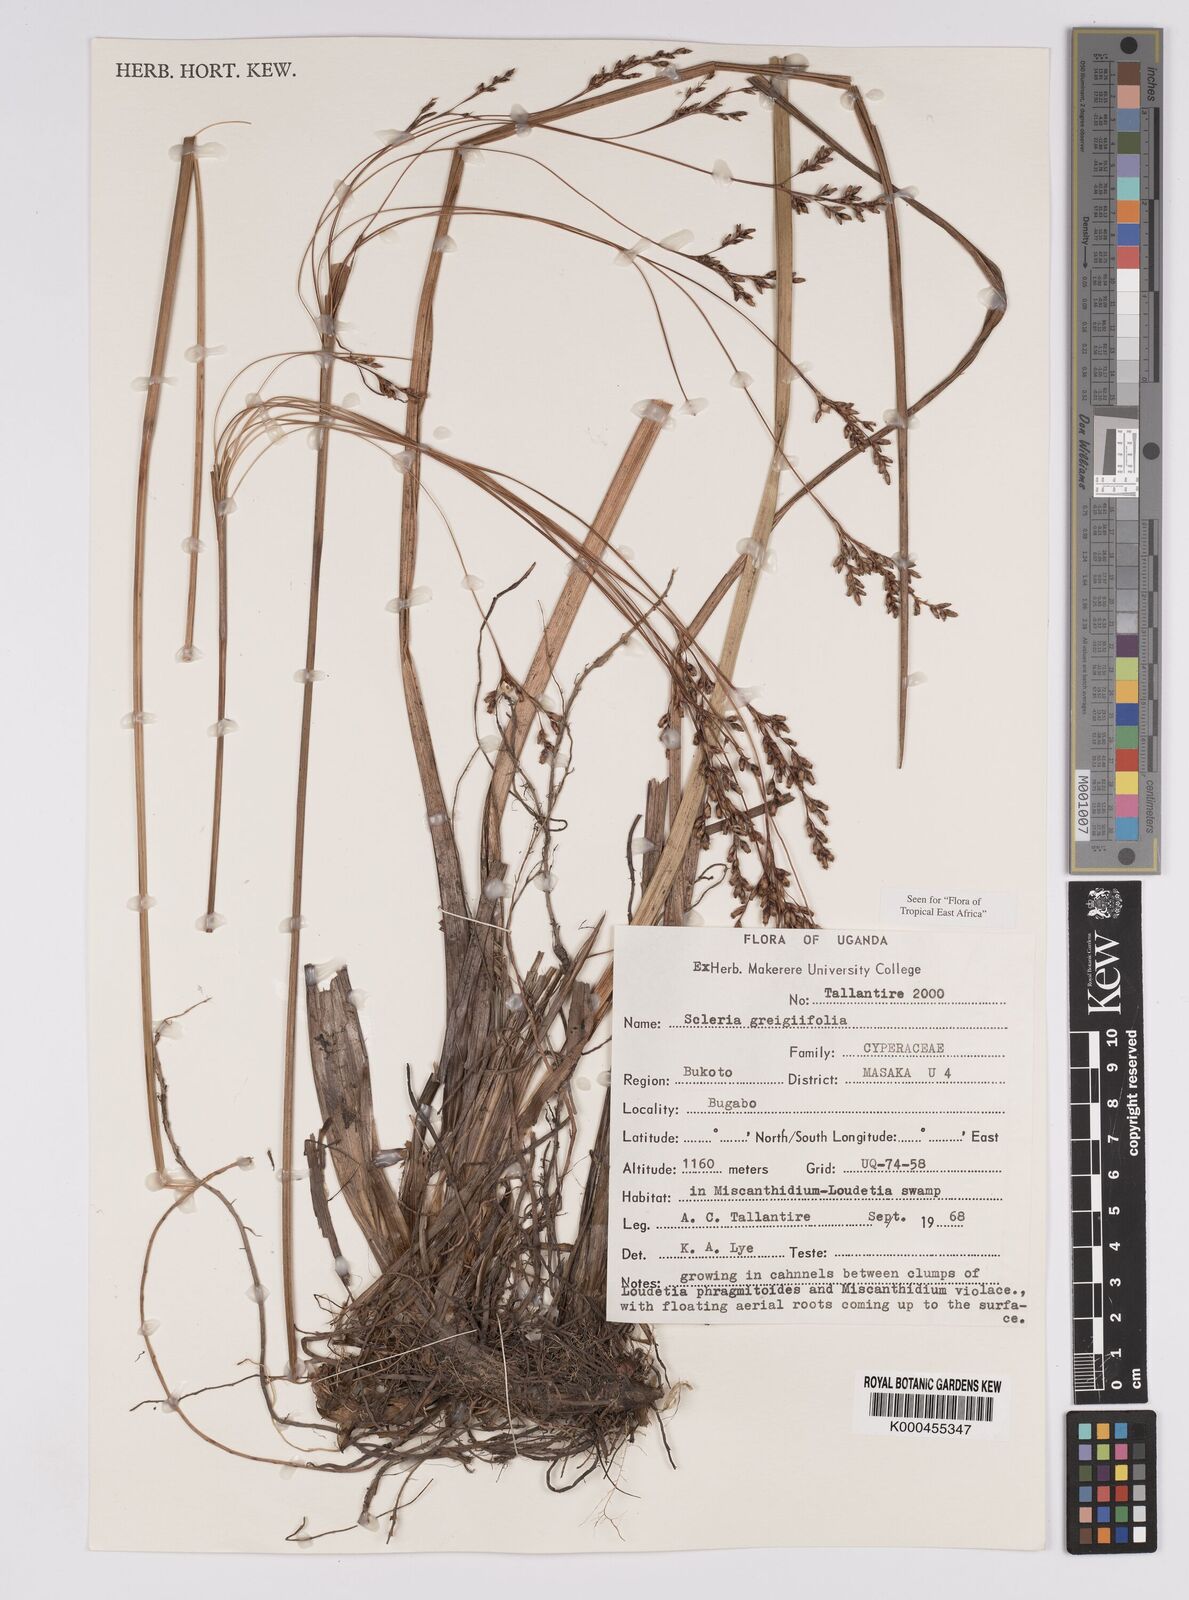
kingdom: Plantae
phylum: Tracheophyta
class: Liliopsida
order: Poales
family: Cyperaceae
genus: Scleria
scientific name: Scleria greigiifolia
